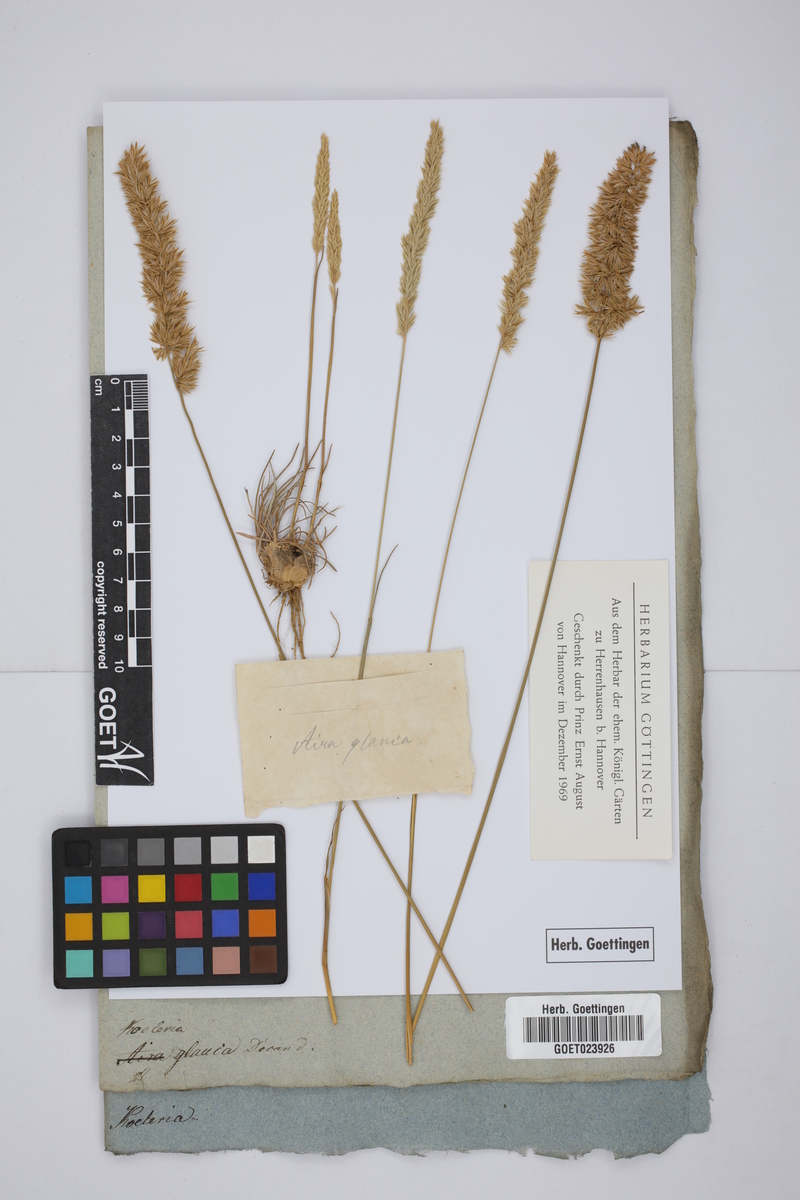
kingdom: Plantae
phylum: Tracheophyta
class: Liliopsida
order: Poales
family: Poaceae
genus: Koeleria
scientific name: Koeleria glauca
